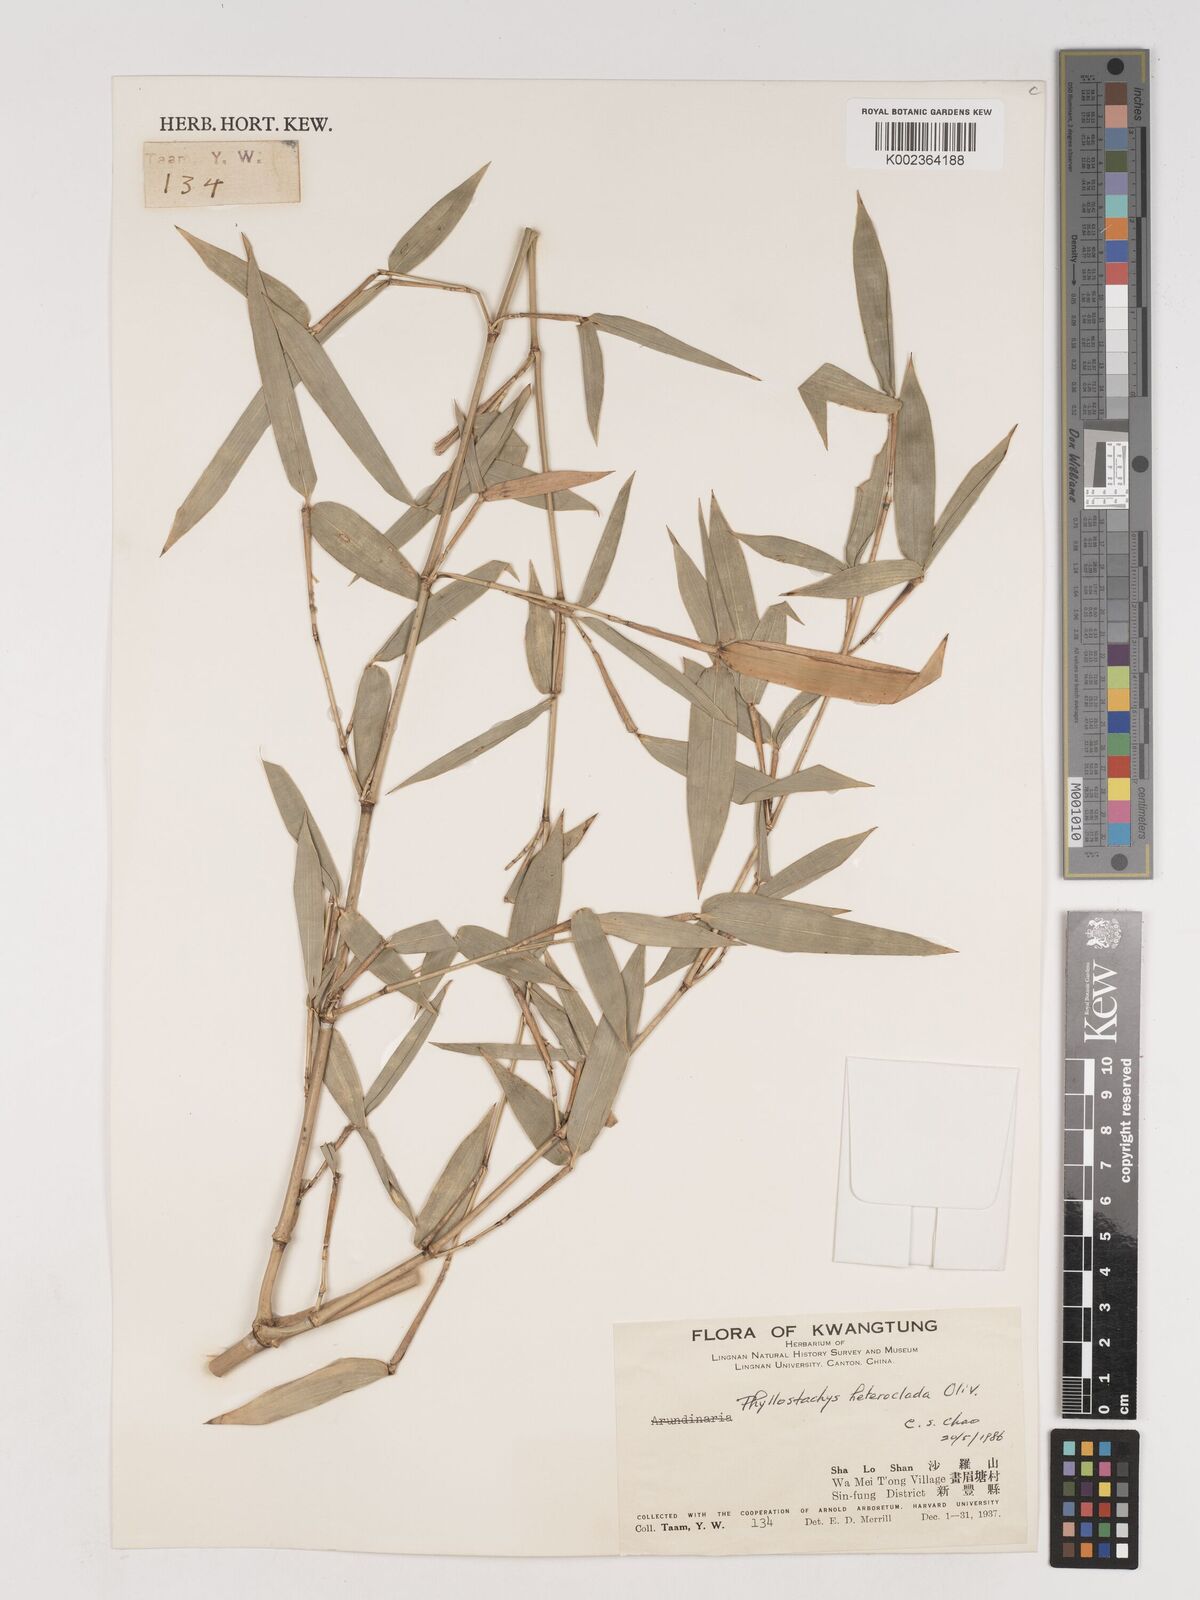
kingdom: Plantae
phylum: Tracheophyta
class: Liliopsida
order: Poales
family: Poaceae
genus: Phyllostachys
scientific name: Phyllostachys heteroclada
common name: Fishscale bamboo
